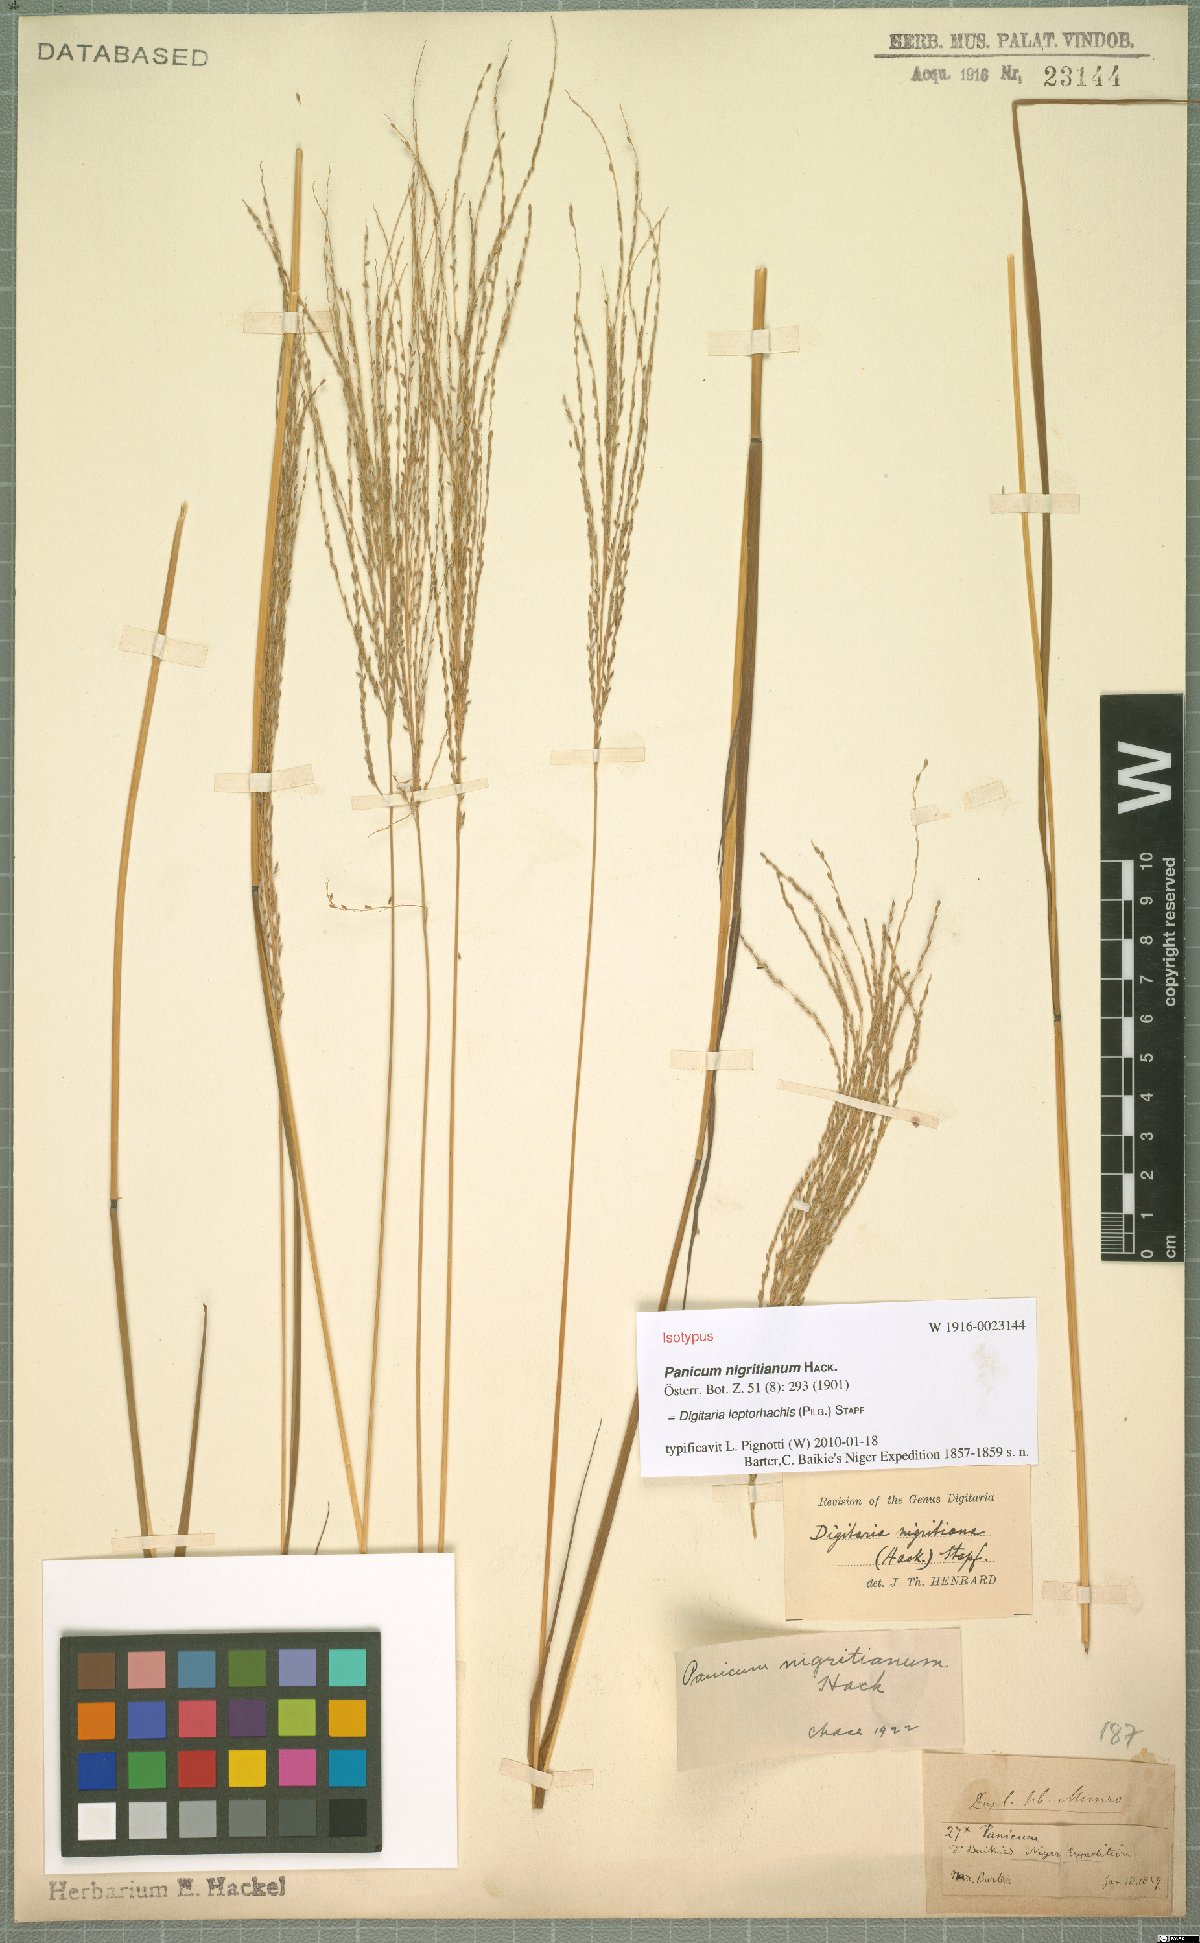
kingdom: Plantae
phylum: Tracheophyta
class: Liliopsida
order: Poales
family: Poaceae
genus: Digitaria
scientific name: Digitaria leptorhachis
